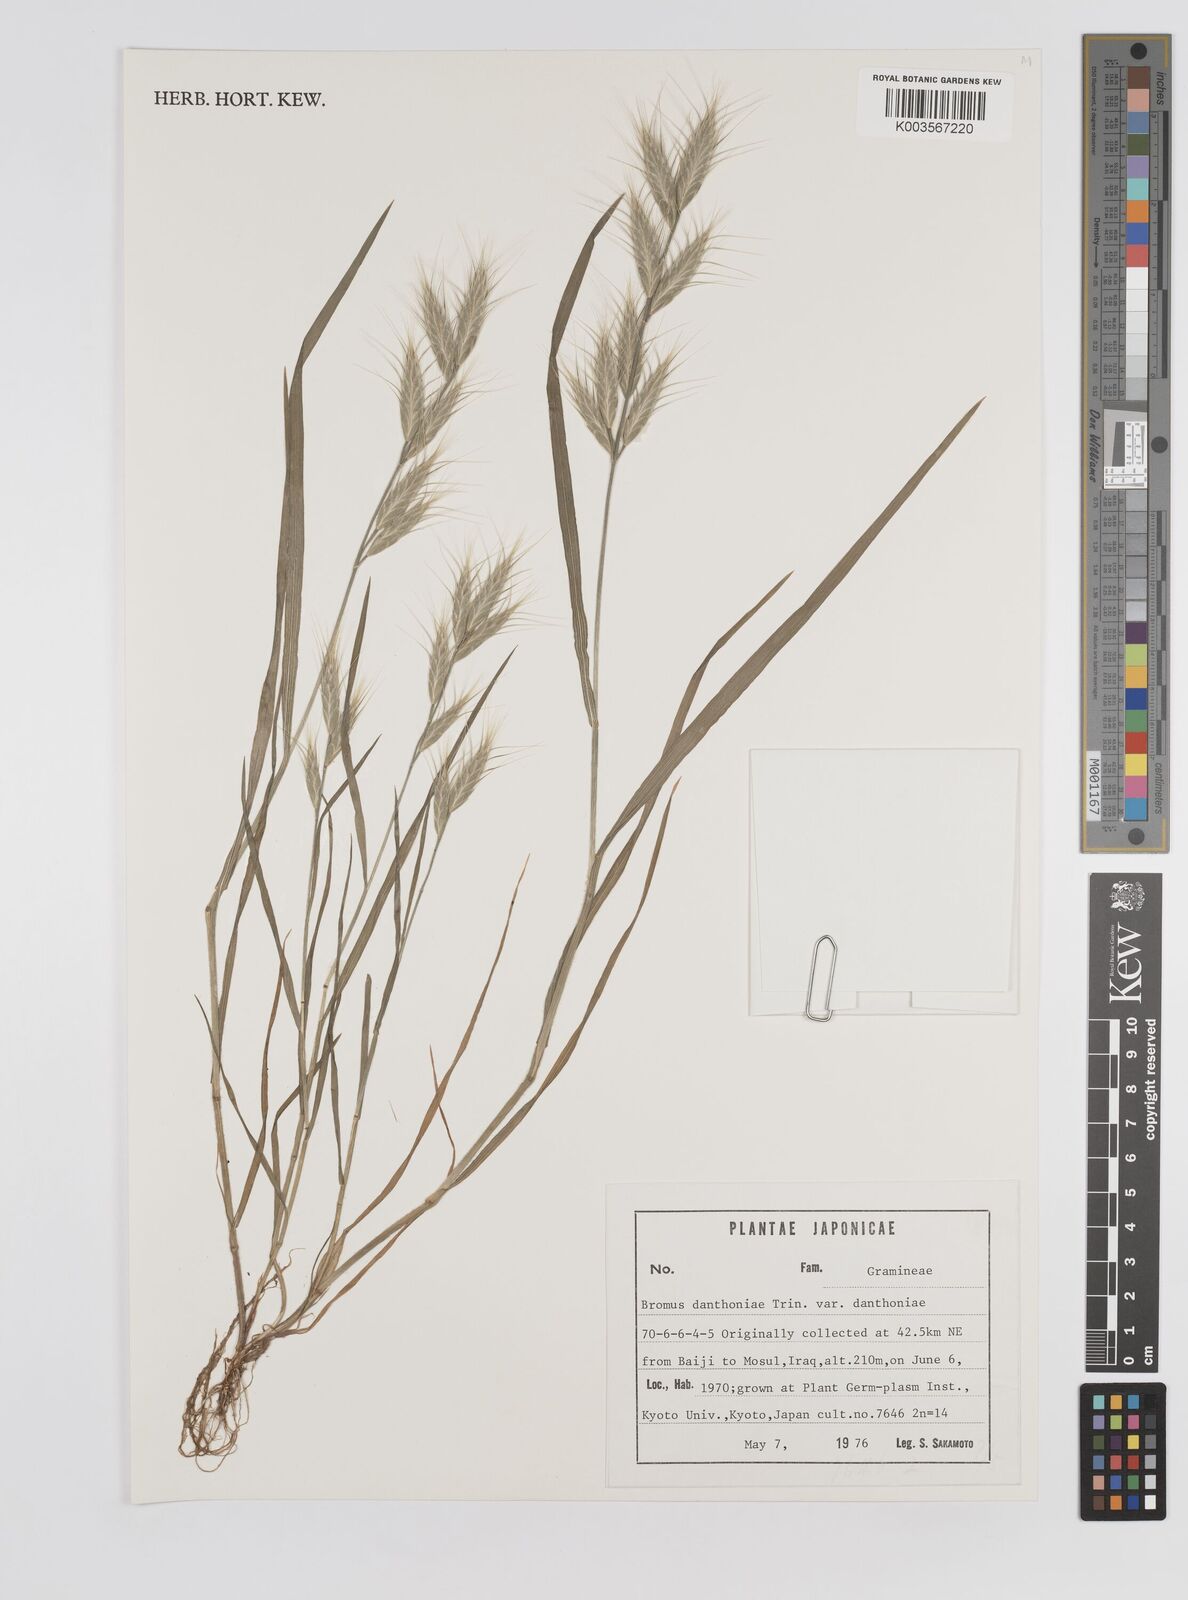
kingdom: Plantae
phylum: Tracheophyta
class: Liliopsida
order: Poales
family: Poaceae
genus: Bromus
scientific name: Bromus danthoniae
